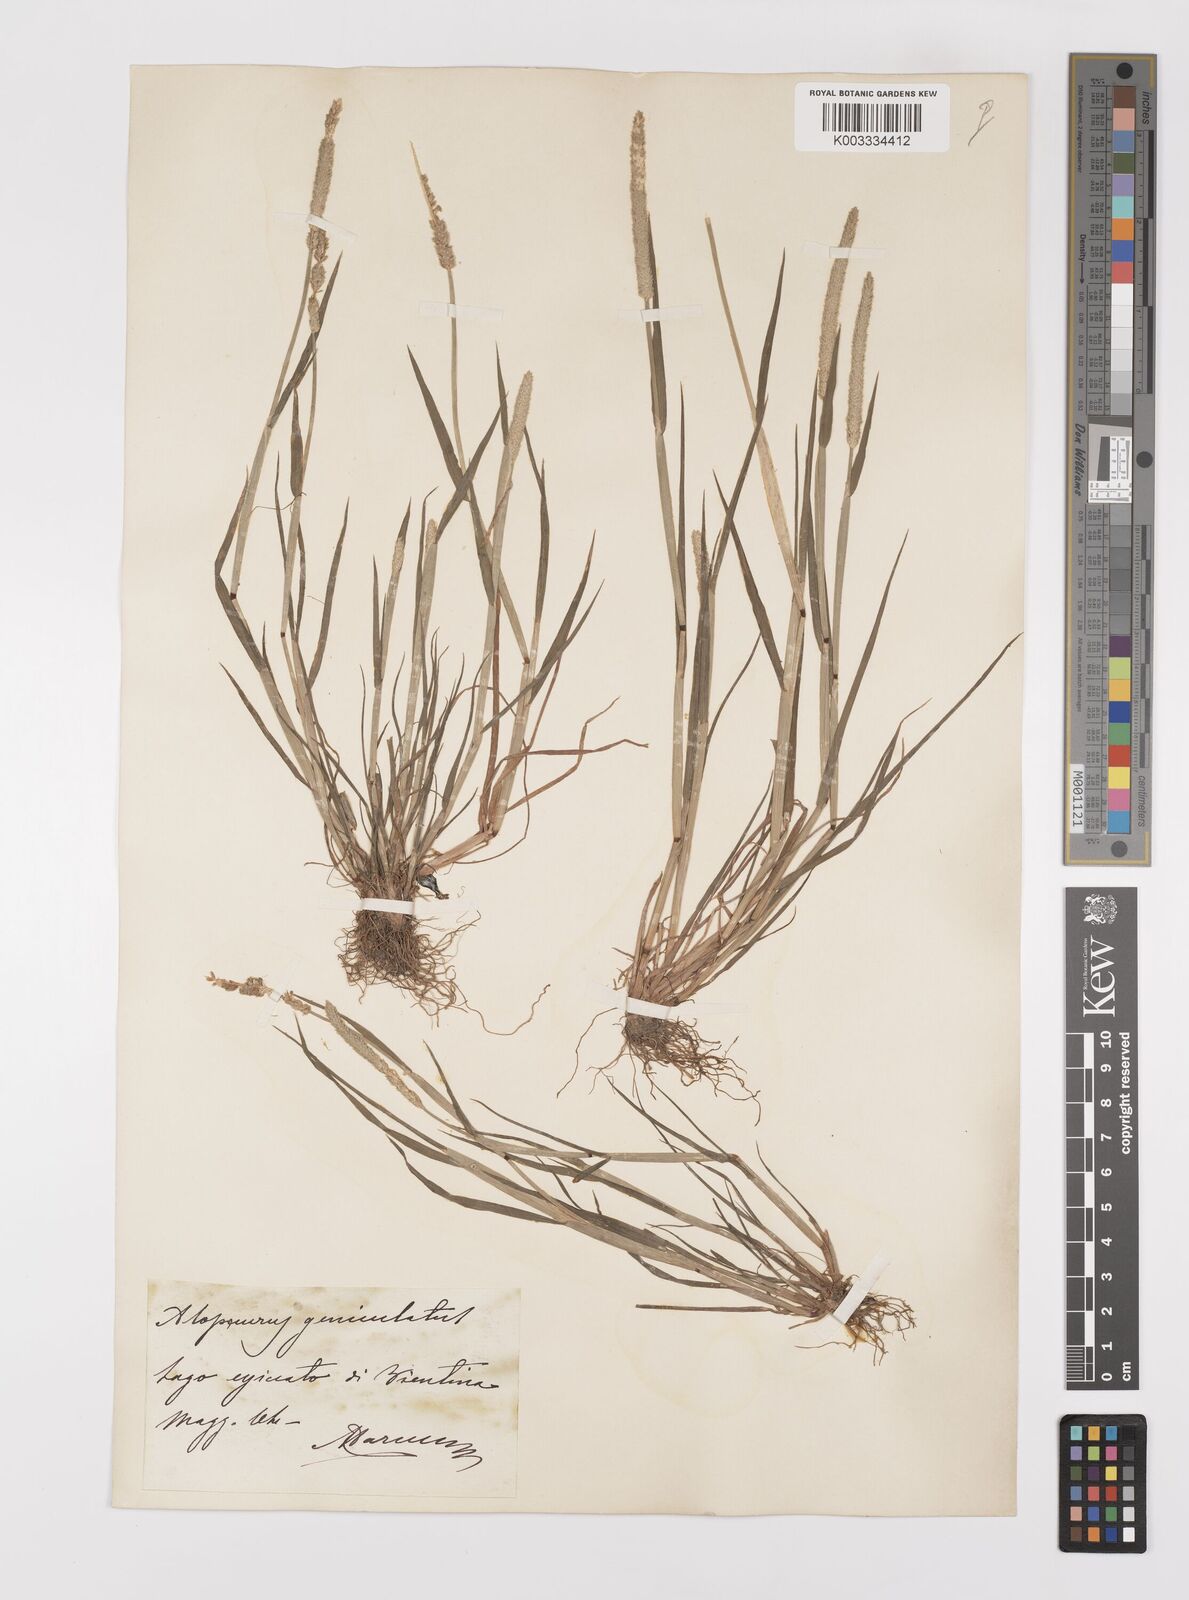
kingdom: Plantae
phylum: Tracheophyta
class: Liliopsida
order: Poales
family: Poaceae
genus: Alopecurus
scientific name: Alopecurus aequalis
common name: Orange foxtail
